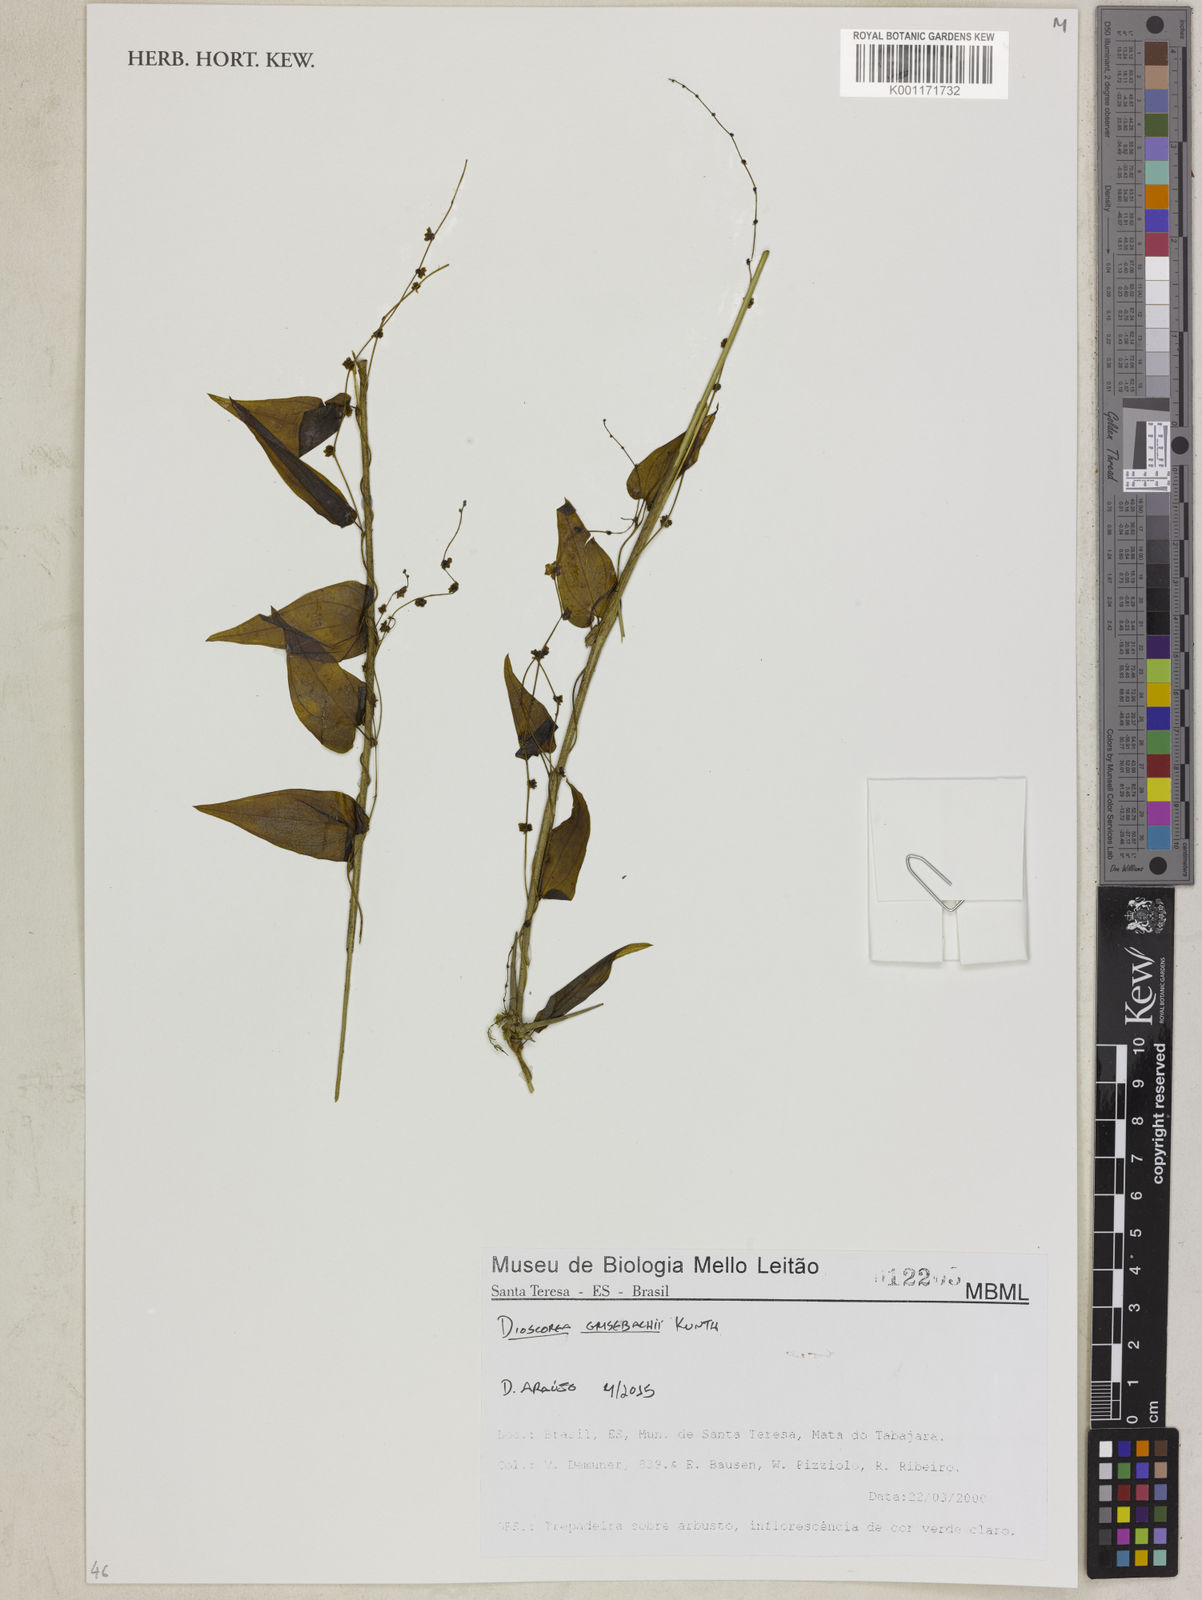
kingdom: Plantae
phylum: Tracheophyta
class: Liliopsida
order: Dioscoreales
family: Dioscoreaceae
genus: Dioscorea
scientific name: Dioscorea grisebachii
